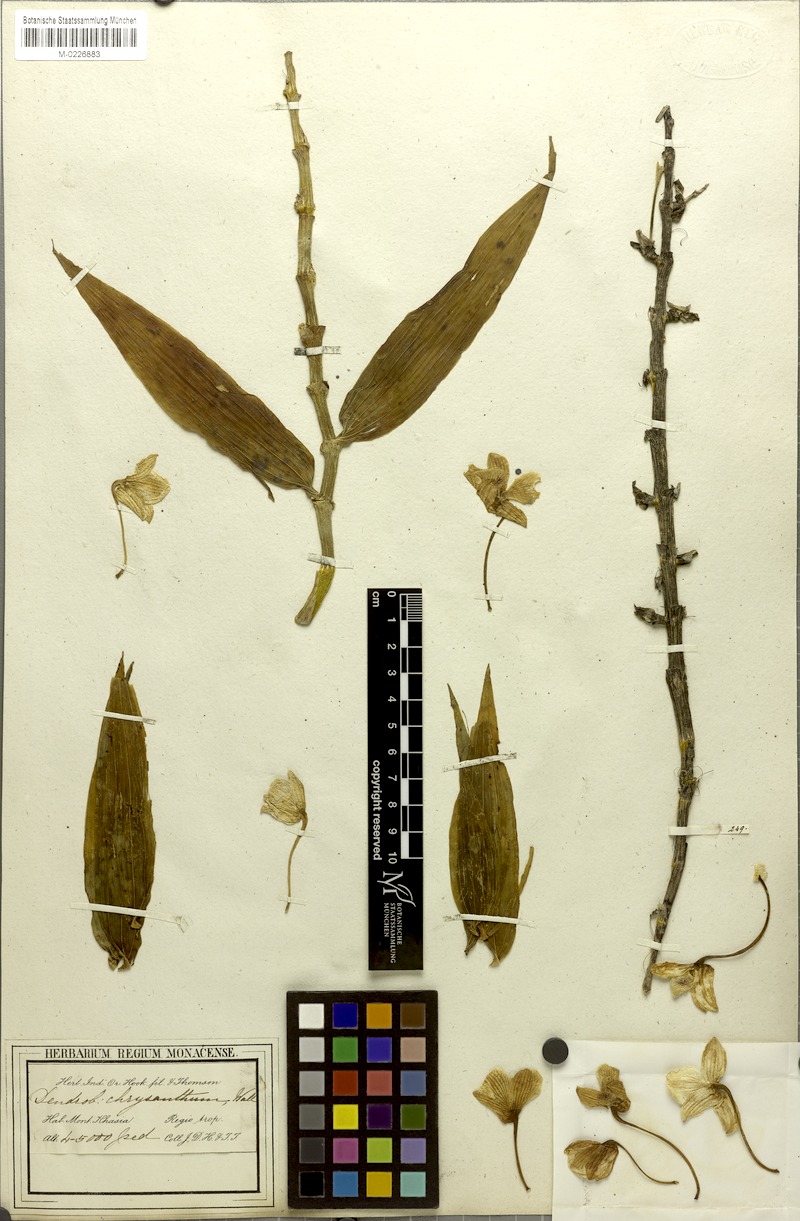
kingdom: Plantae
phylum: Tracheophyta
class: Liliopsida
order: Asparagales
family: Orchidaceae
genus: Dendrobium
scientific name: Dendrobium chrysanthum
